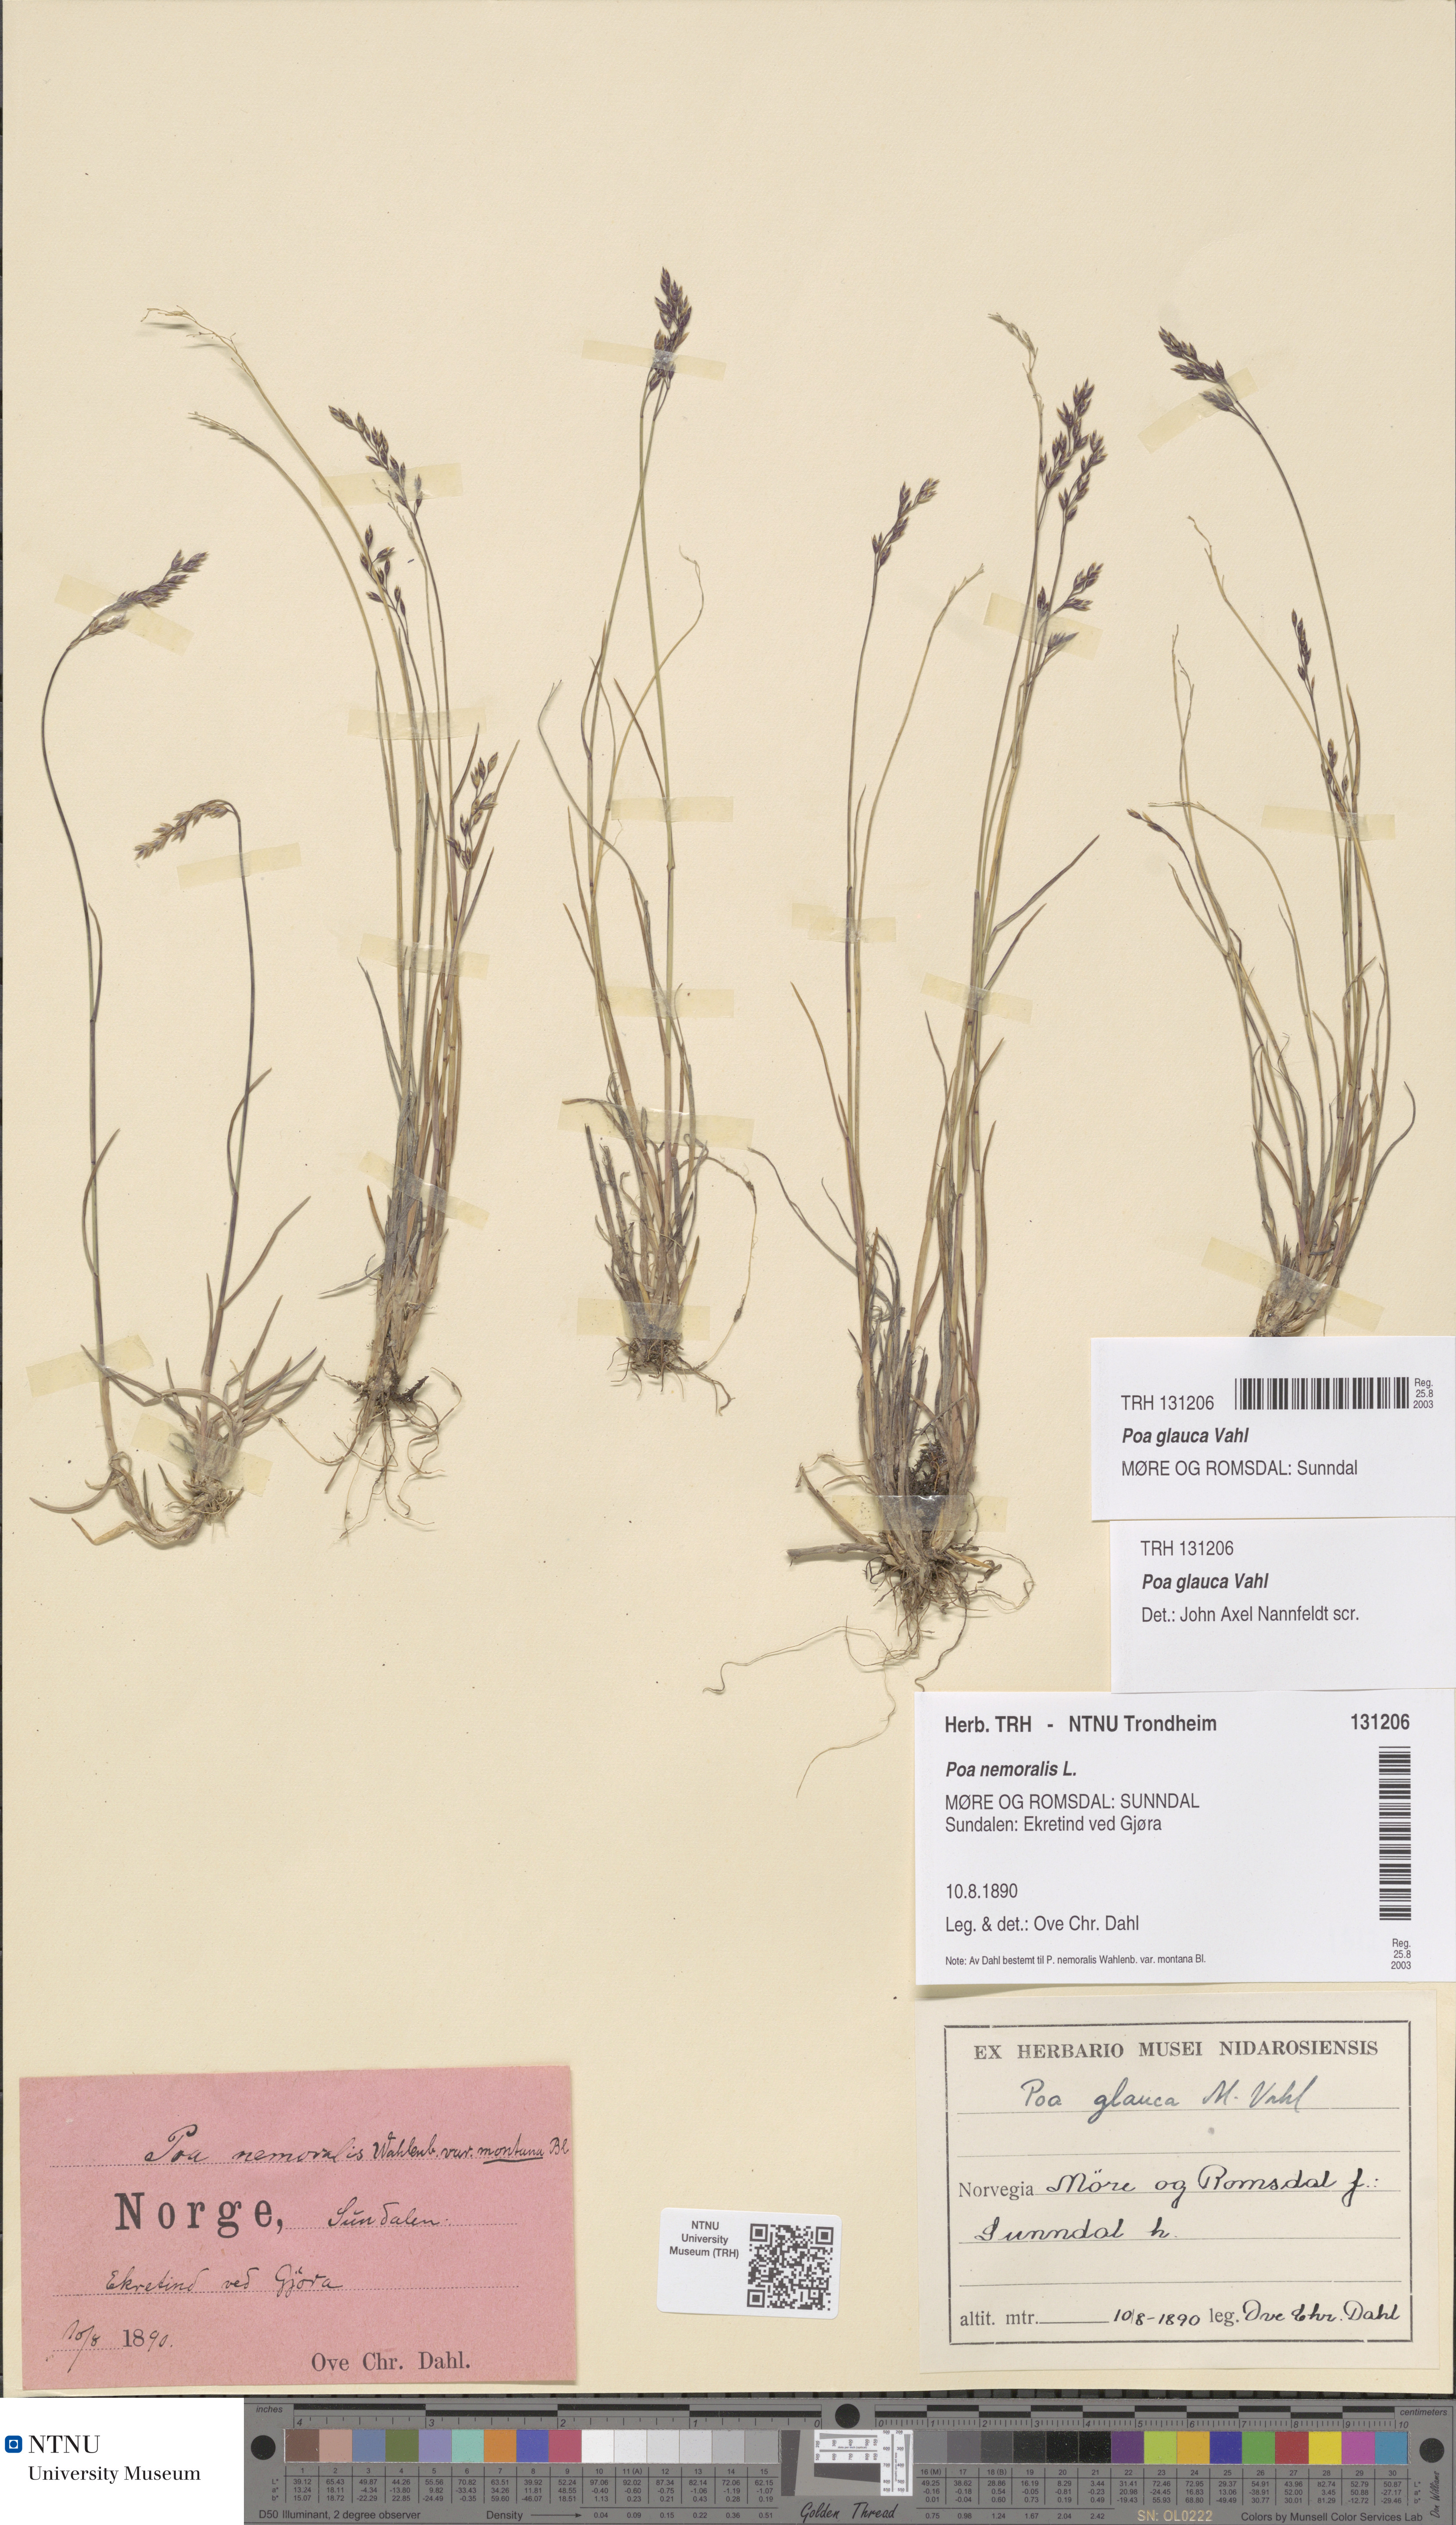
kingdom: Plantae
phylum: Tracheophyta
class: Liliopsida
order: Poales
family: Poaceae
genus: Poa
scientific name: Poa glauca
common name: Glaucous bluegrass
